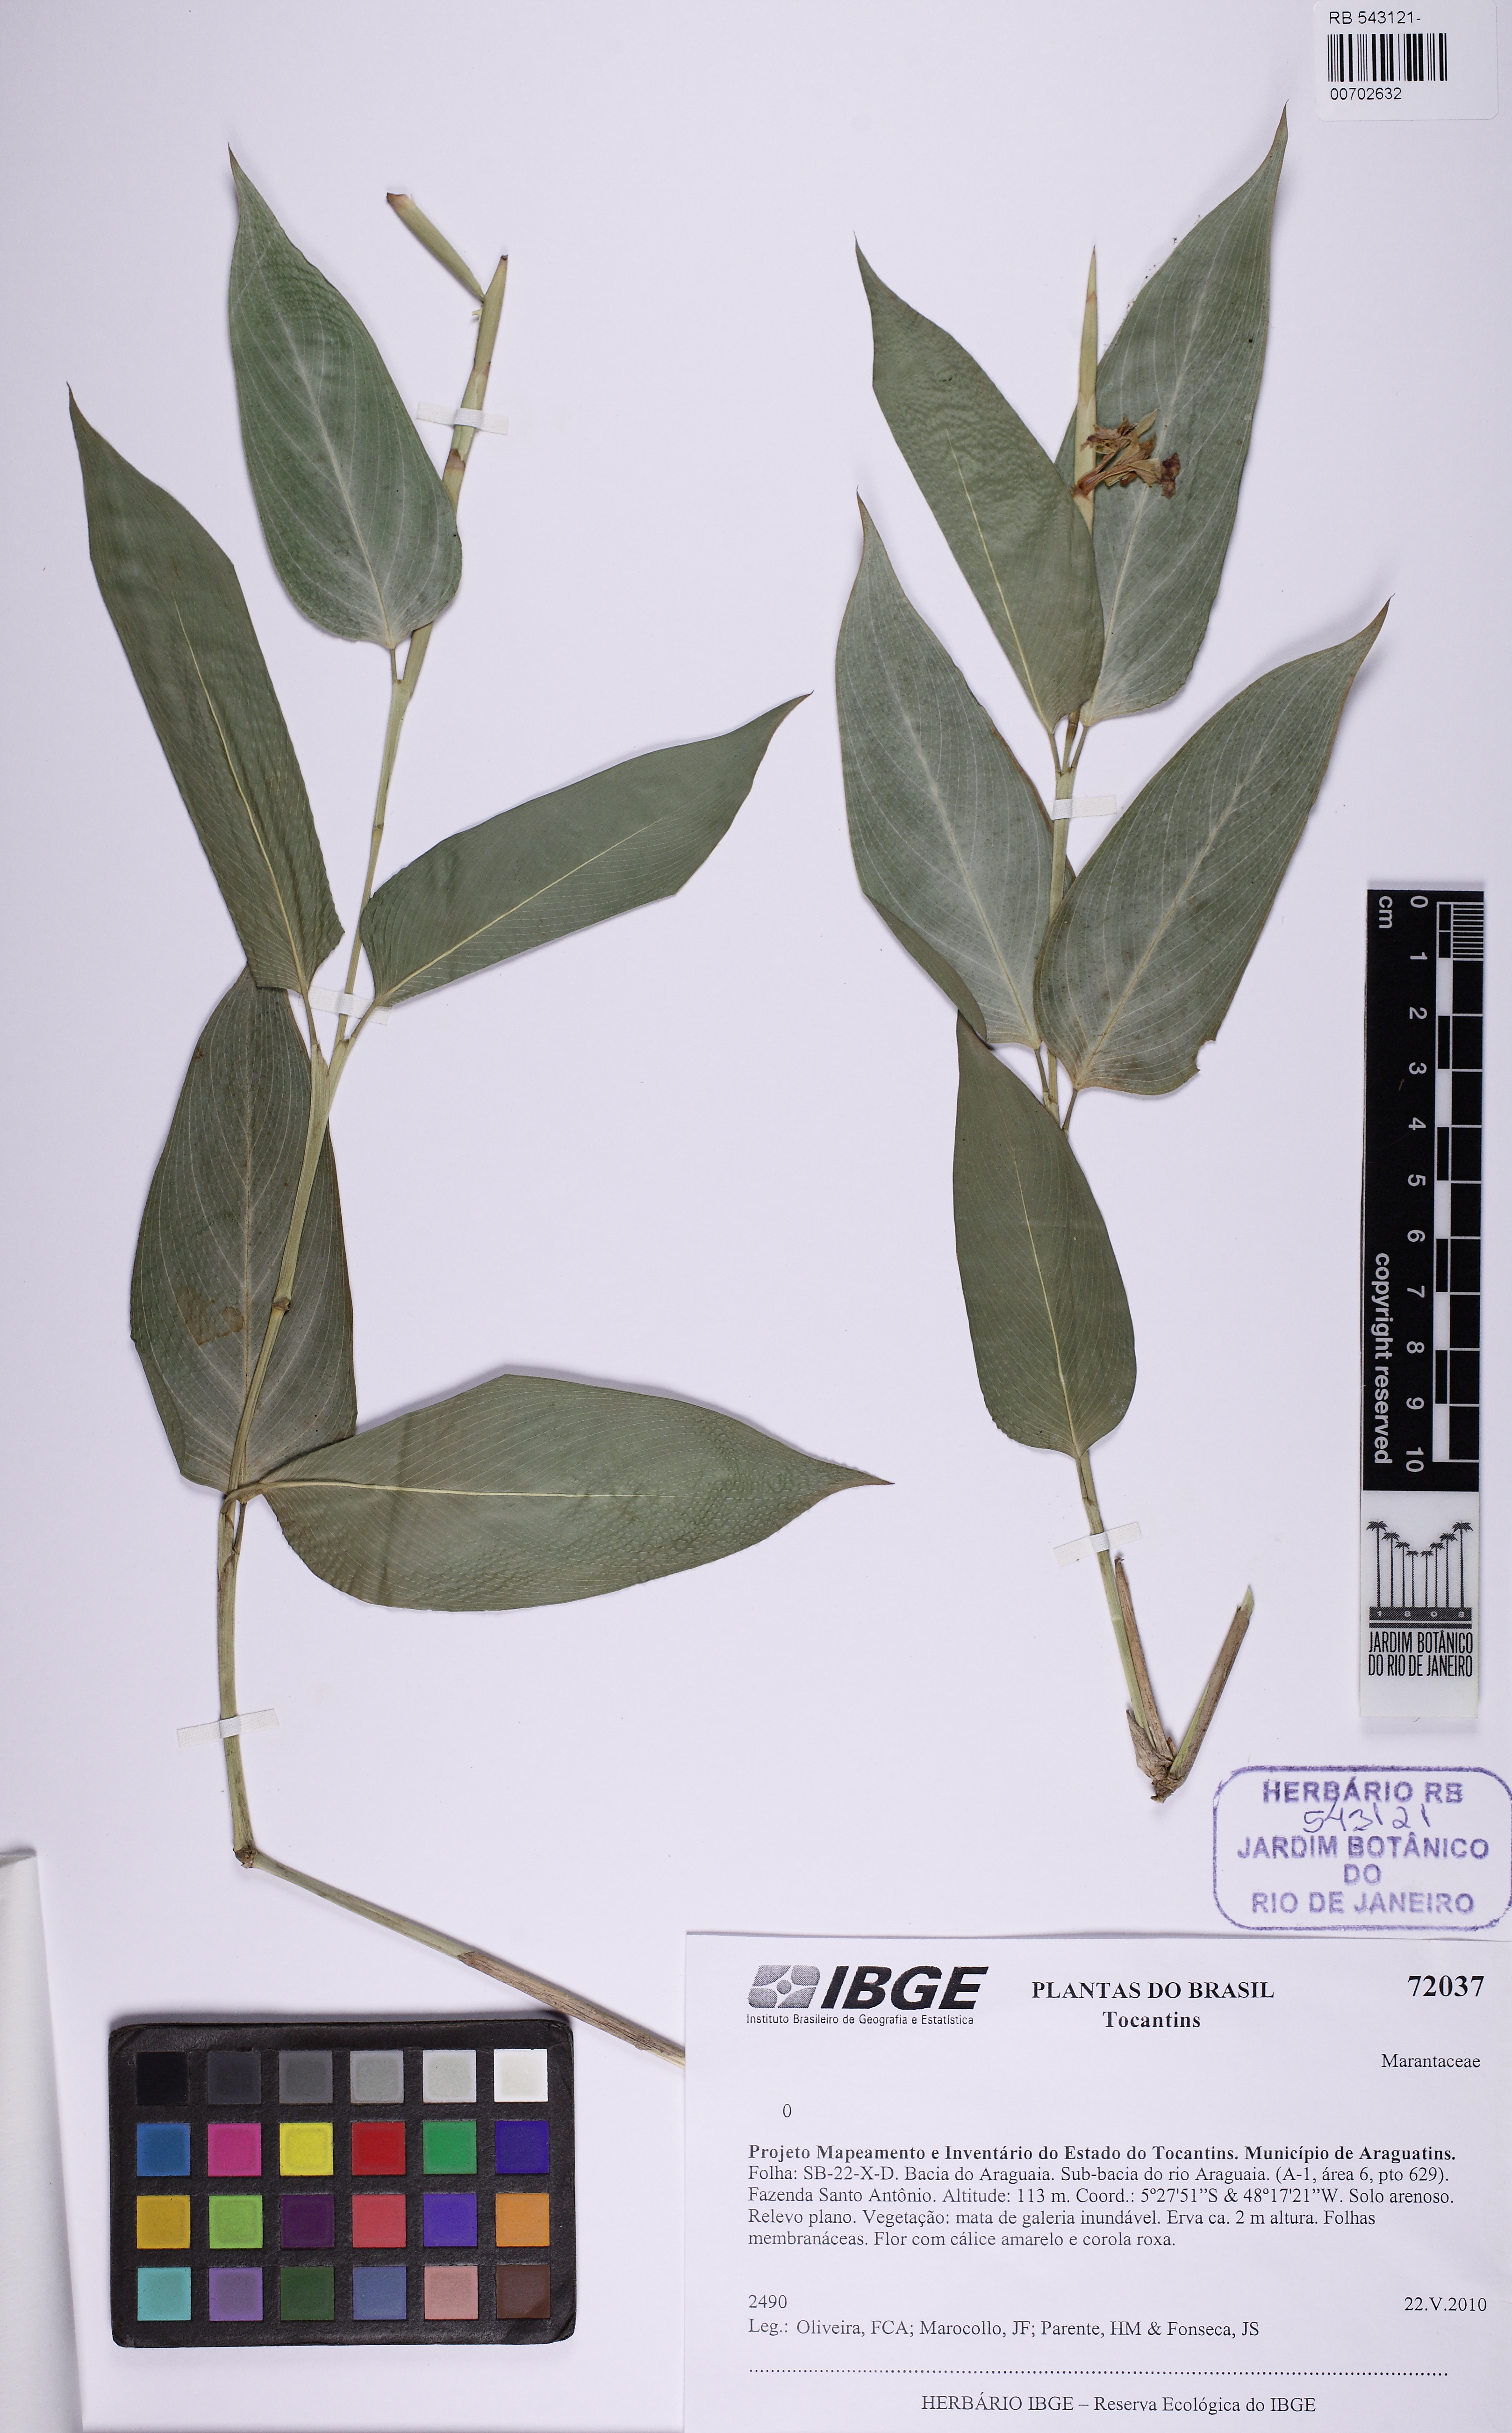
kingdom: Plantae
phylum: Tracheophyta
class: Liliopsida
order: Zingiberales
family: Marantaceae
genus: Ischnosiphon
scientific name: Ischnosiphon
